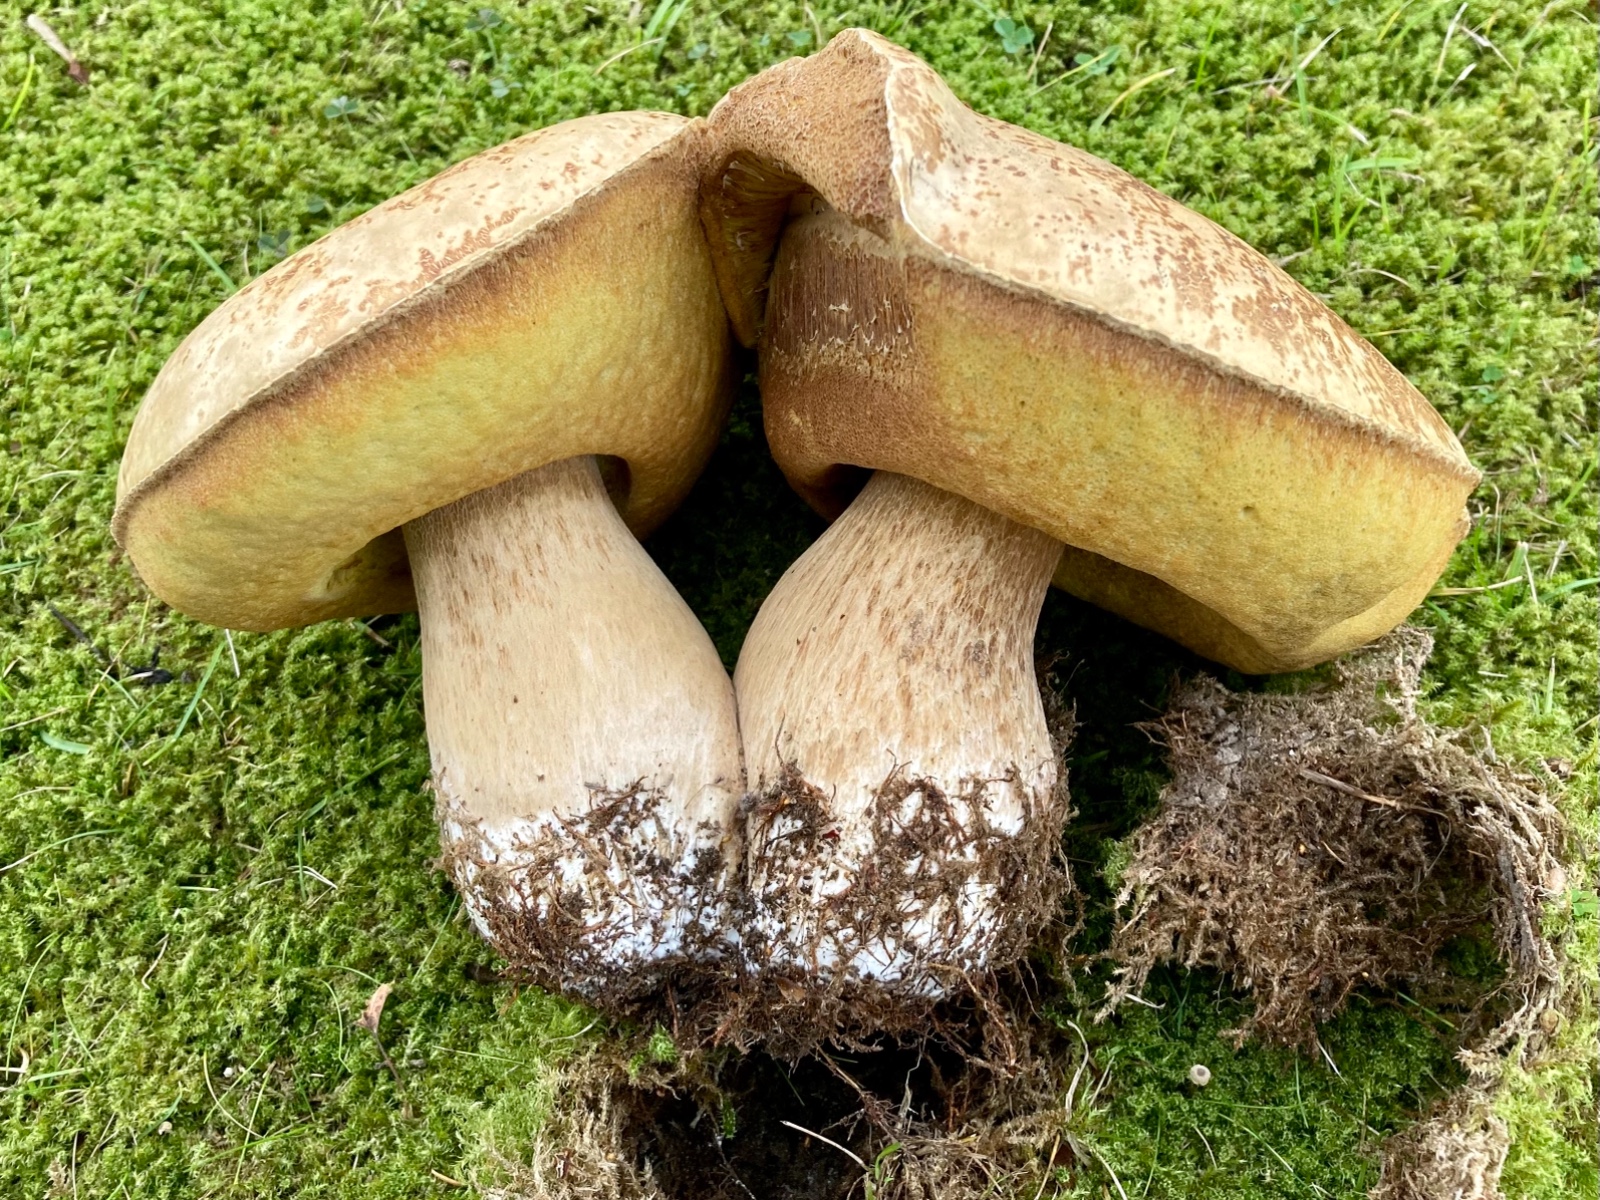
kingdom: Fungi
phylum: Basidiomycota
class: Agaricomycetes
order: Boletales
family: Boletaceae
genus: Boletus
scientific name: Boletus edulis
